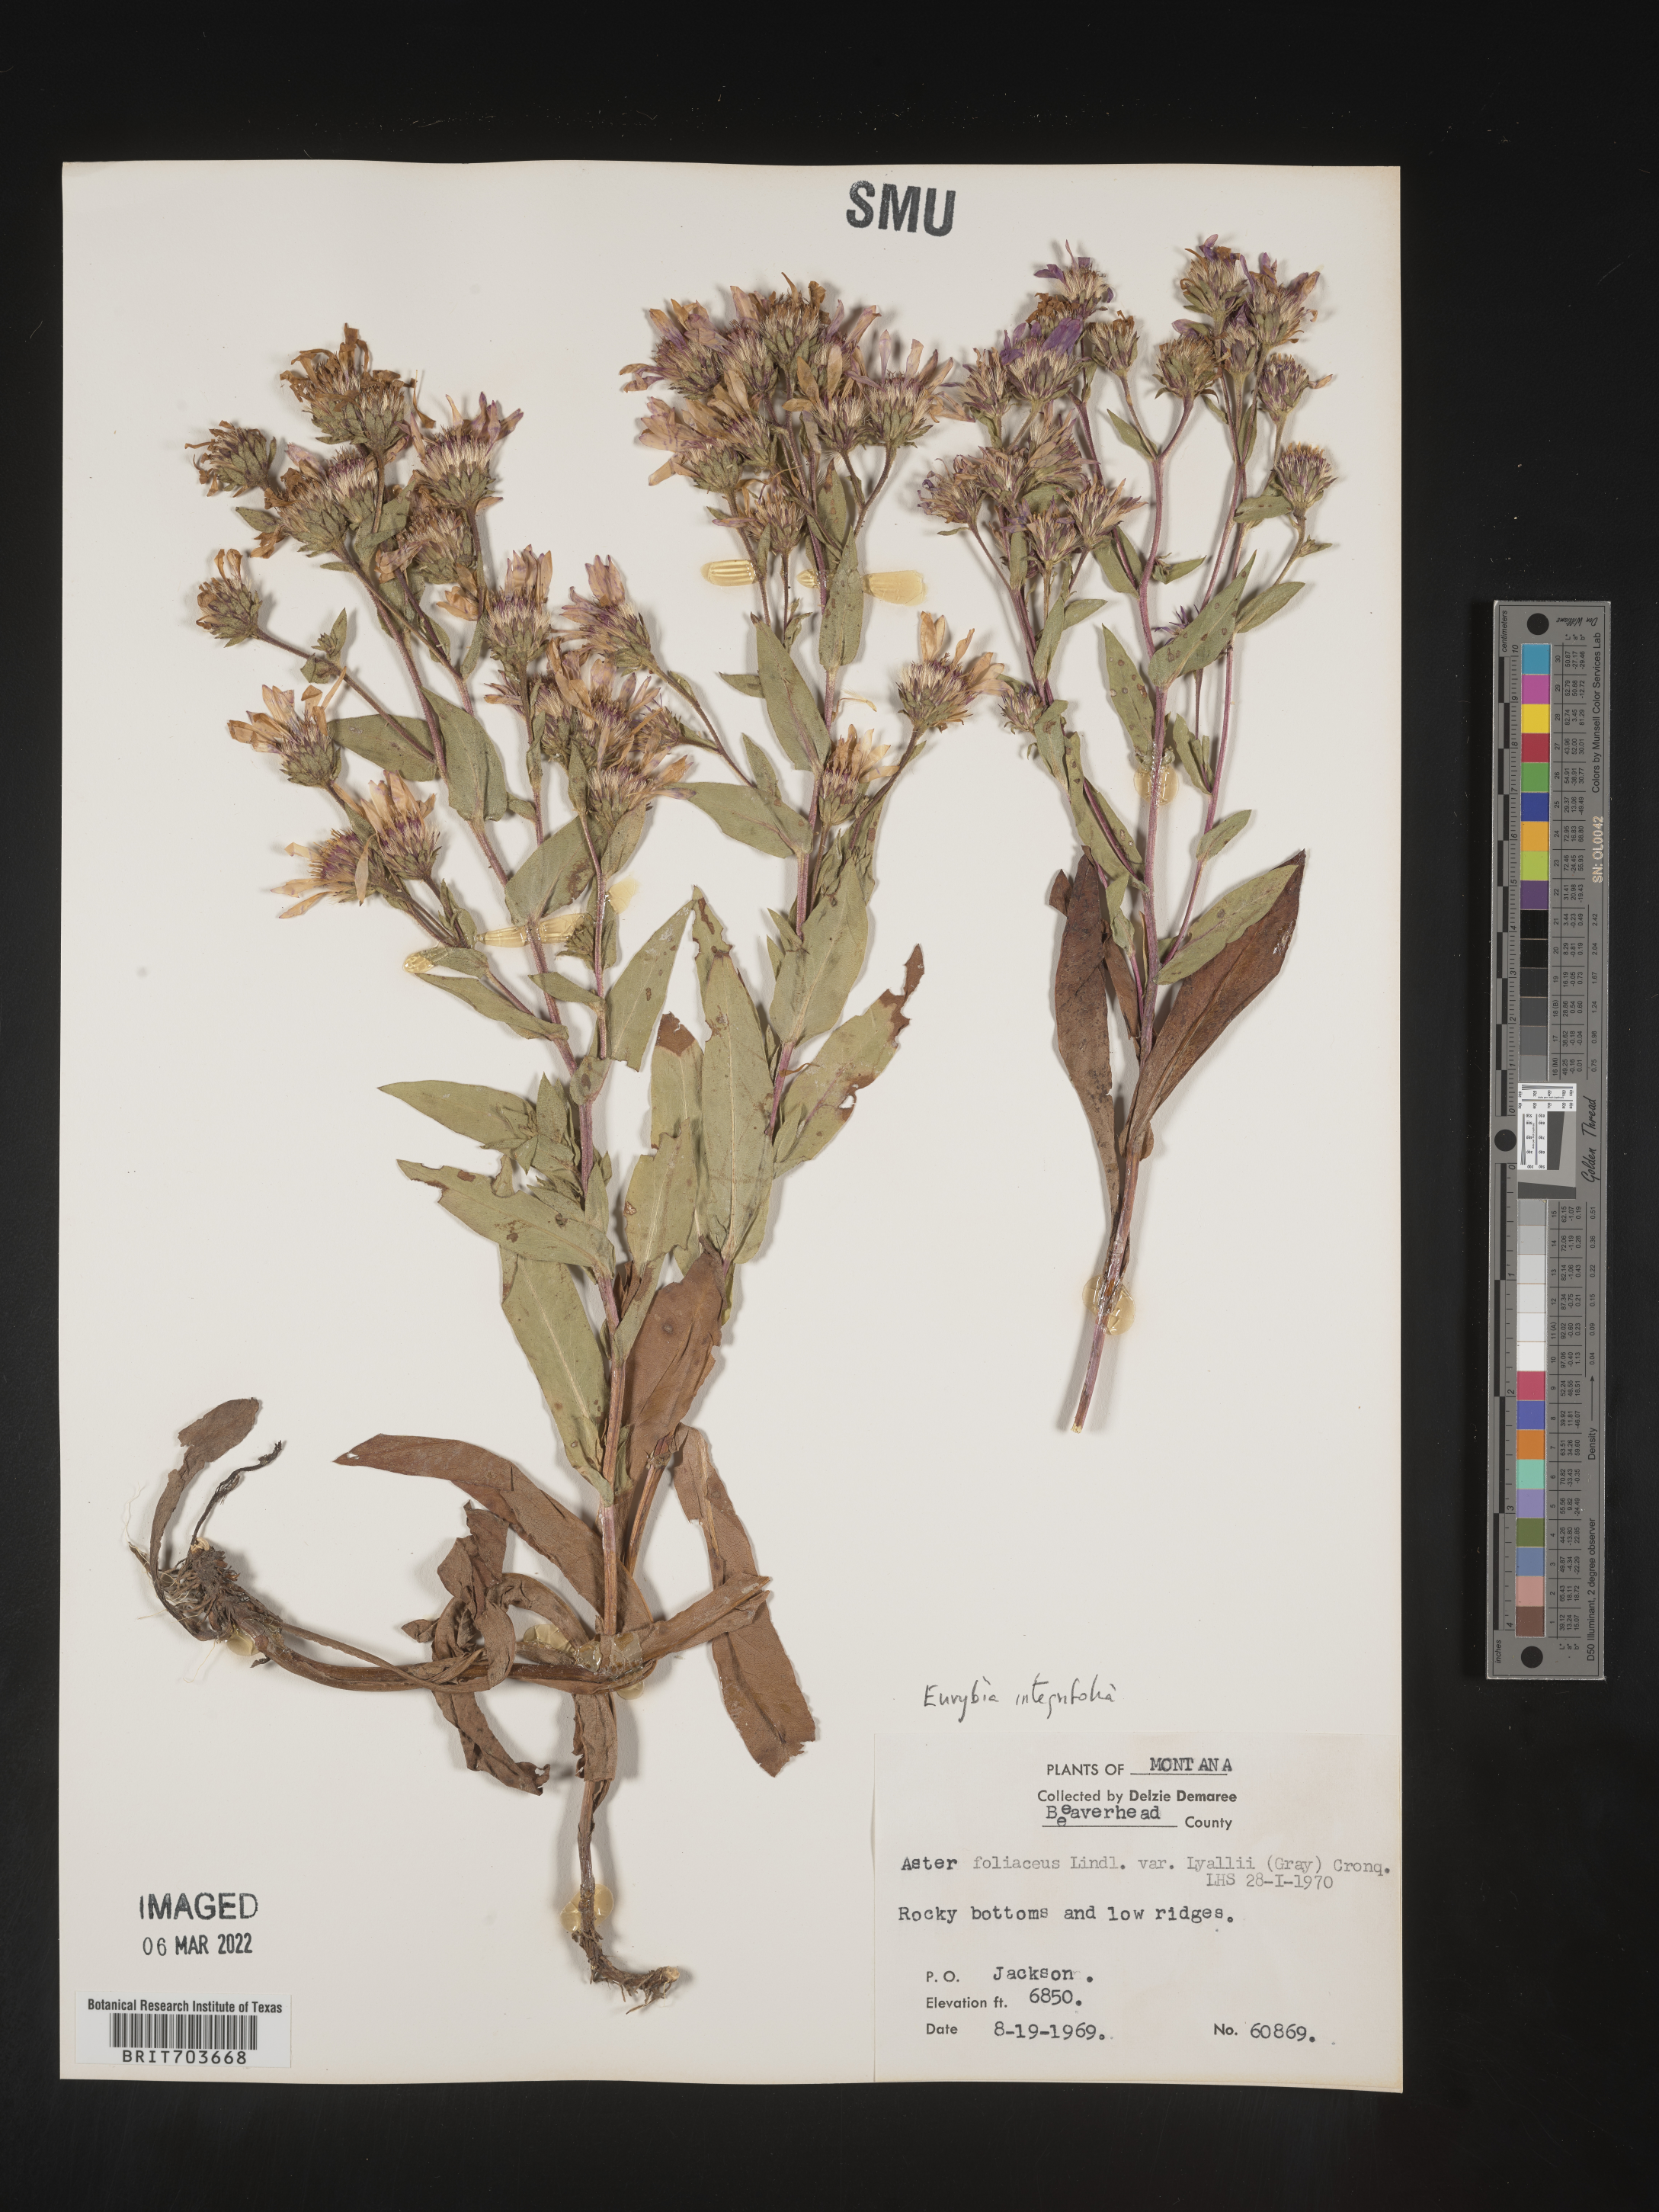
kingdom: Plantae
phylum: Tracheophyta
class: Magnoliopsida
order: Asterales
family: Asteraceae
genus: Eurybia
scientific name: Eurybia integrifolia
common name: Thick-stem aster
